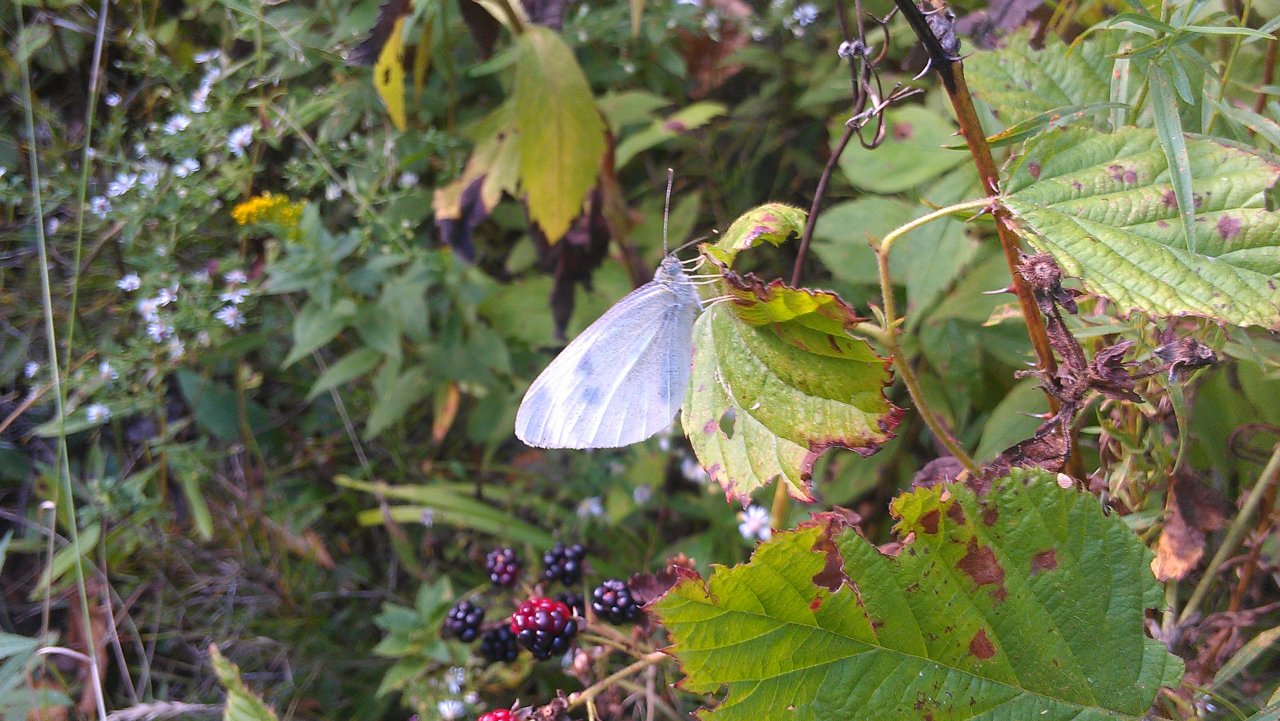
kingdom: Animalia
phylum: Arthropoda
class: Insecta
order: Lepidoptera
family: Pieridae
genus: Pieris
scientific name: Pieris rapae
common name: Cabbage White
